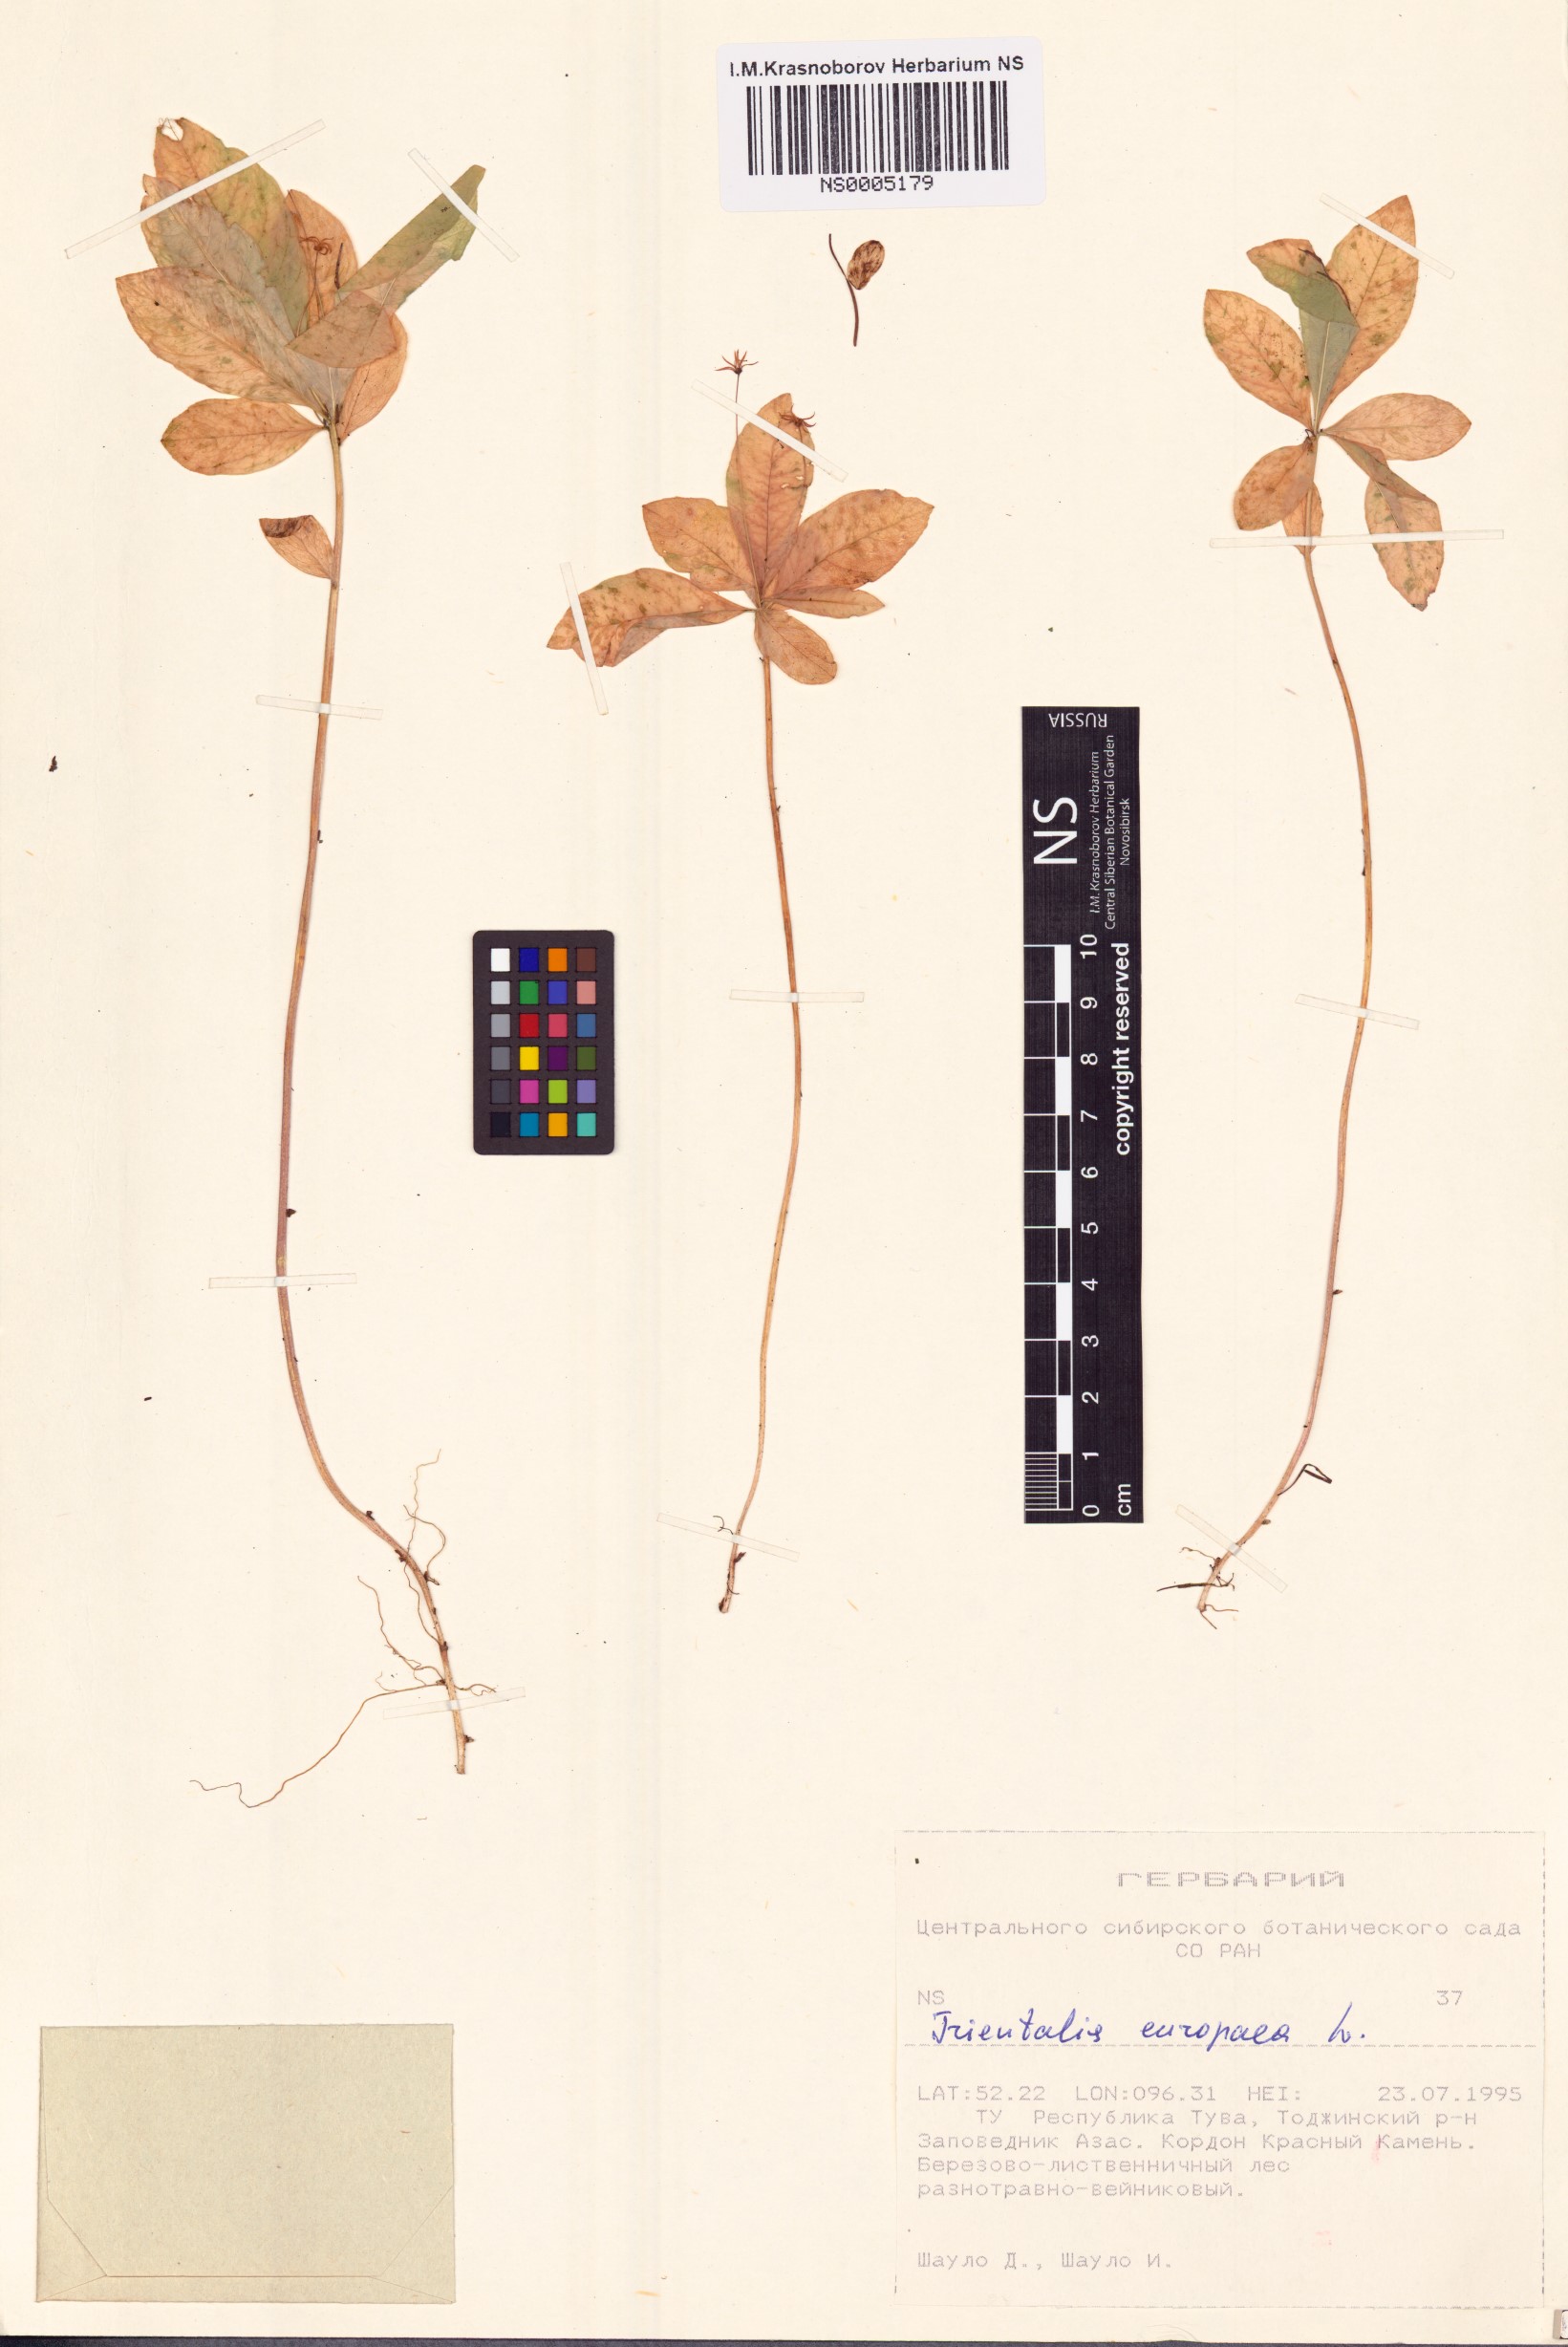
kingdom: Plantae
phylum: Tracheophyta
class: Magnoliopsida
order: Ericales
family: Primulaceae
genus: Lysimachia
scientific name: Lysimachia europaea
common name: Arctic starflower
